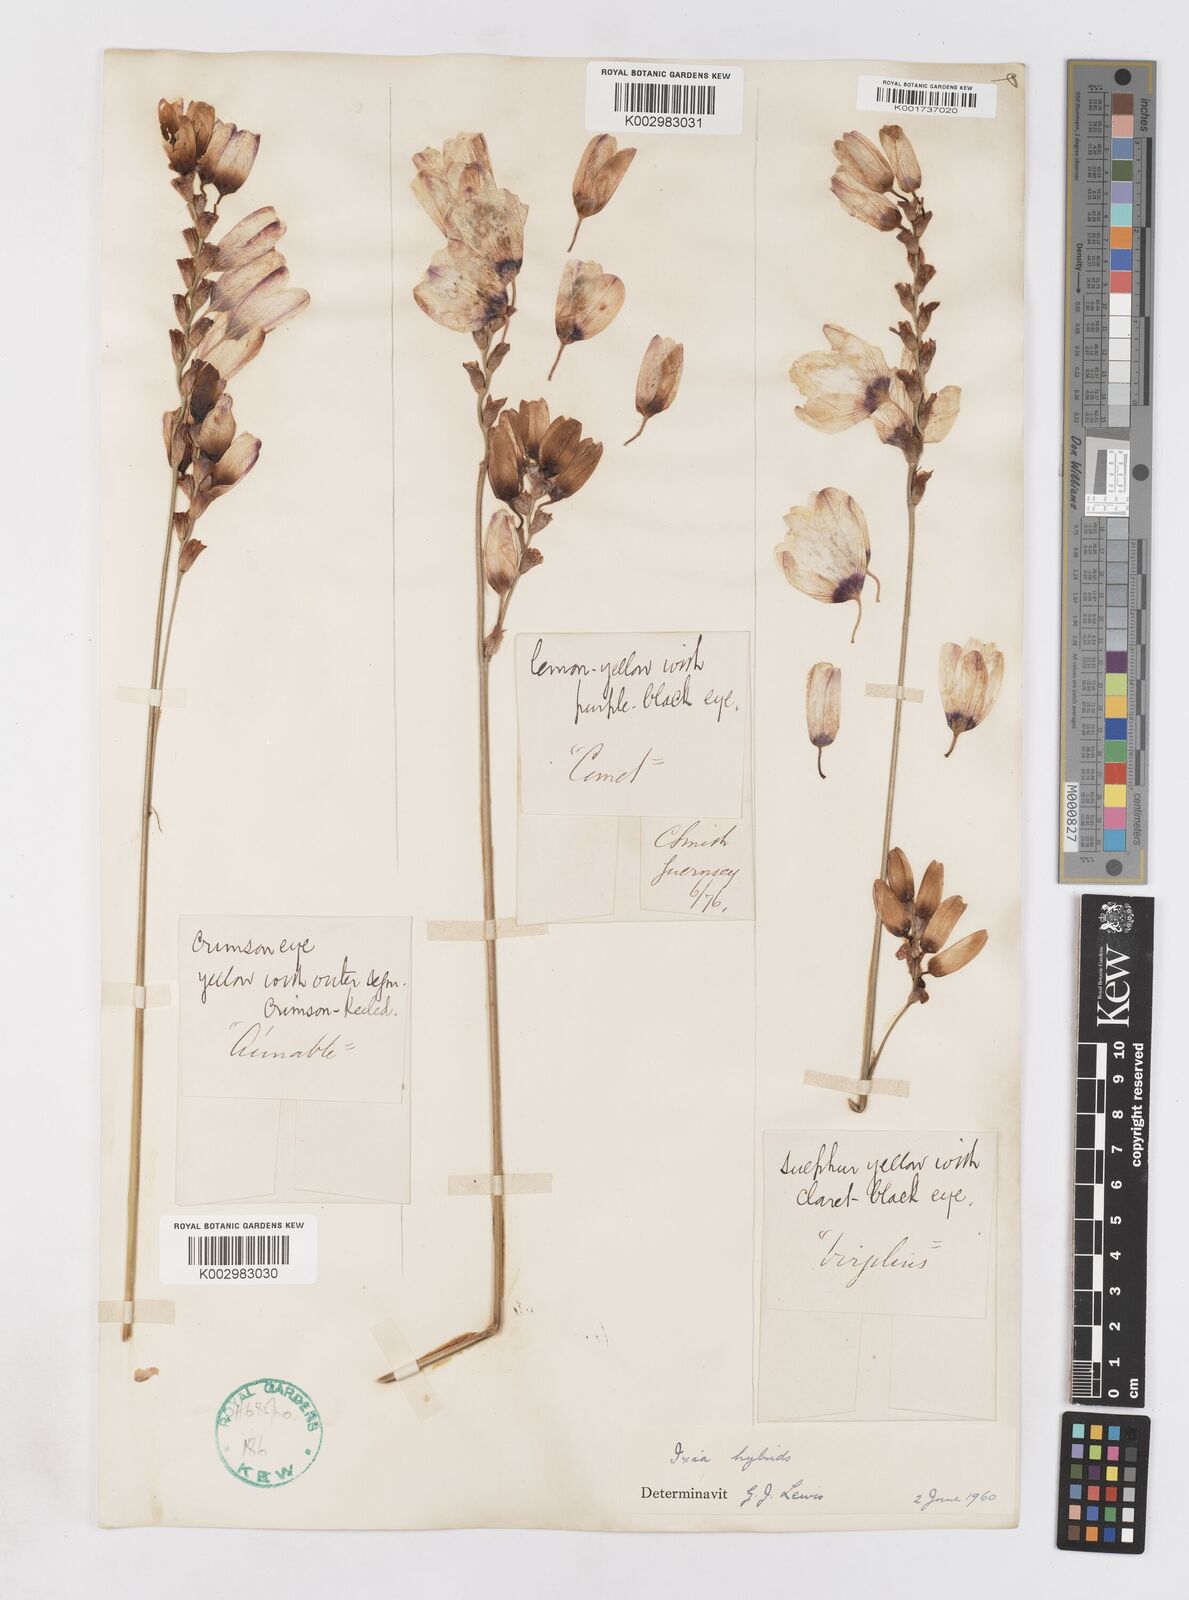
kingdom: Plantae
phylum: Tracheophyta
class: Liliopsida
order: Asparagales
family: Iridaceae
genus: Ixia
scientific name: Ixia polystachya
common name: White-and-yellow-flower cornlily
